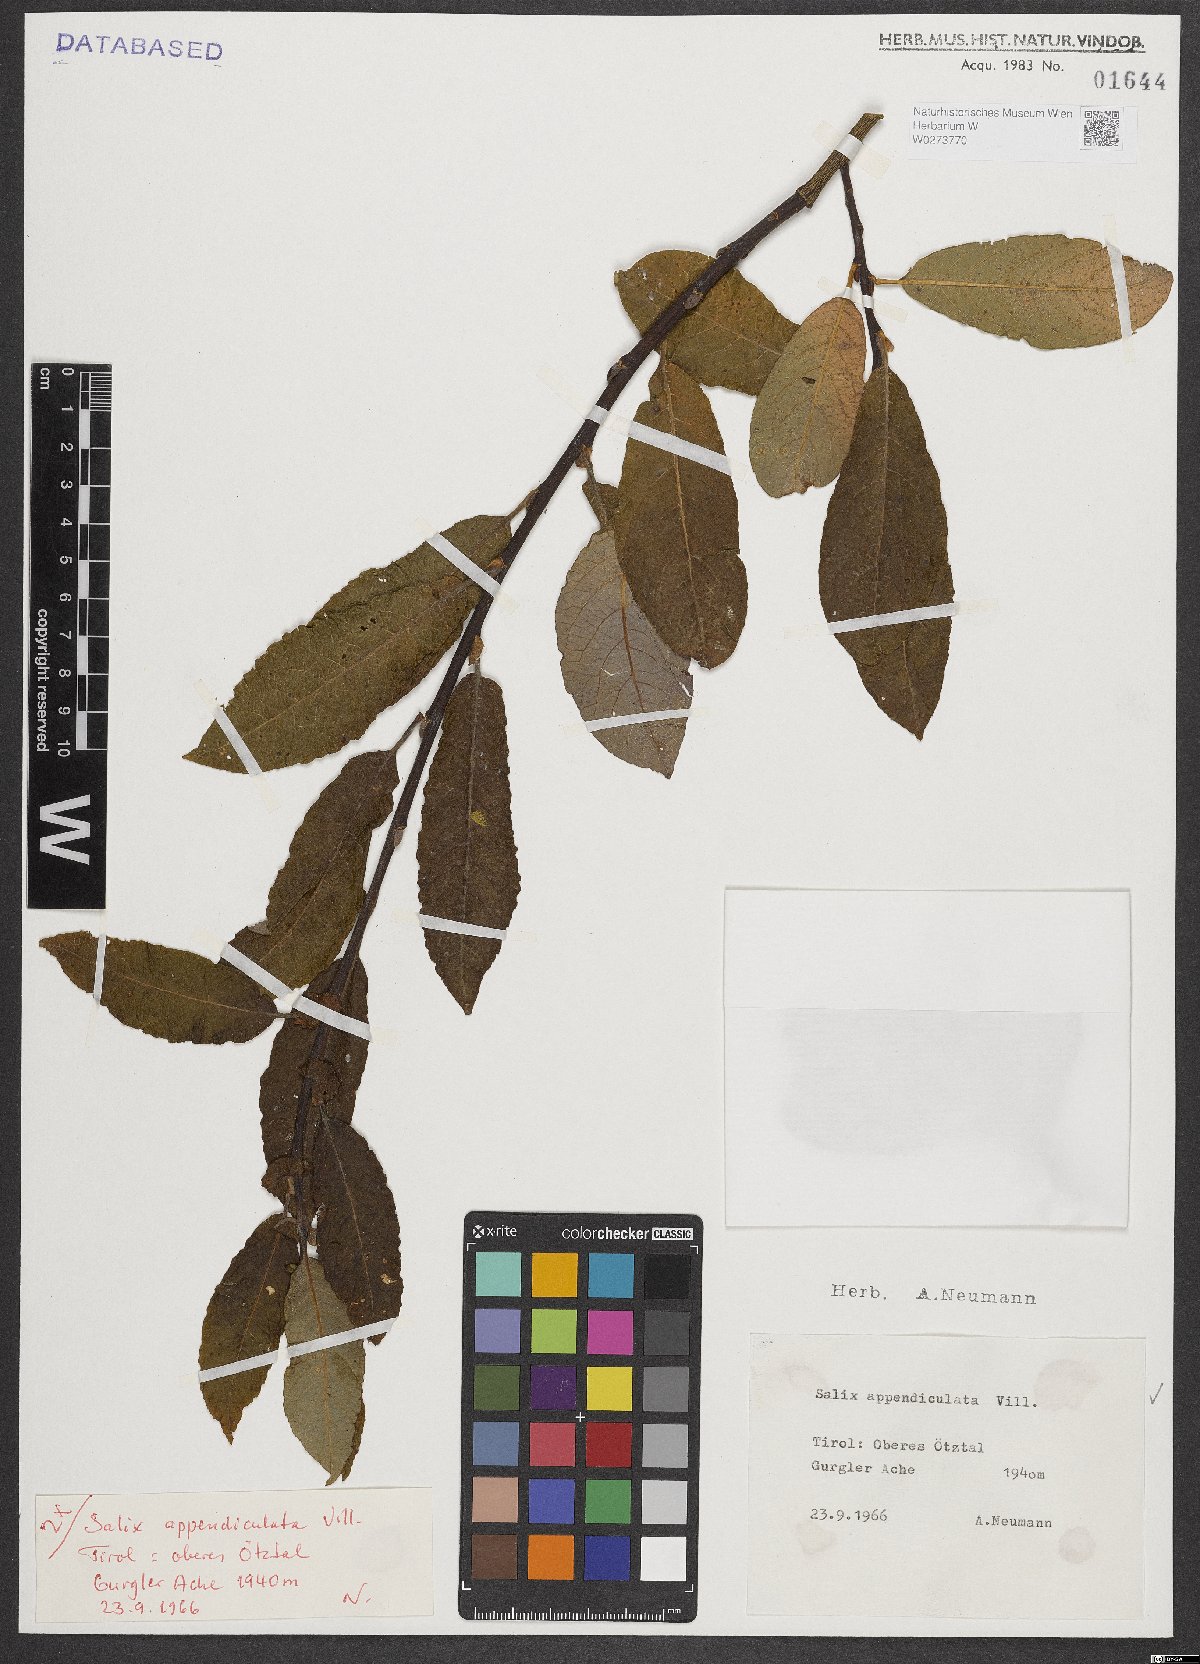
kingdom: Plantae
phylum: Tracheophyta
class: Magnoliopsida
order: Malpighiales
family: Salicaceae
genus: Salix
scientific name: Salix appendiculata
